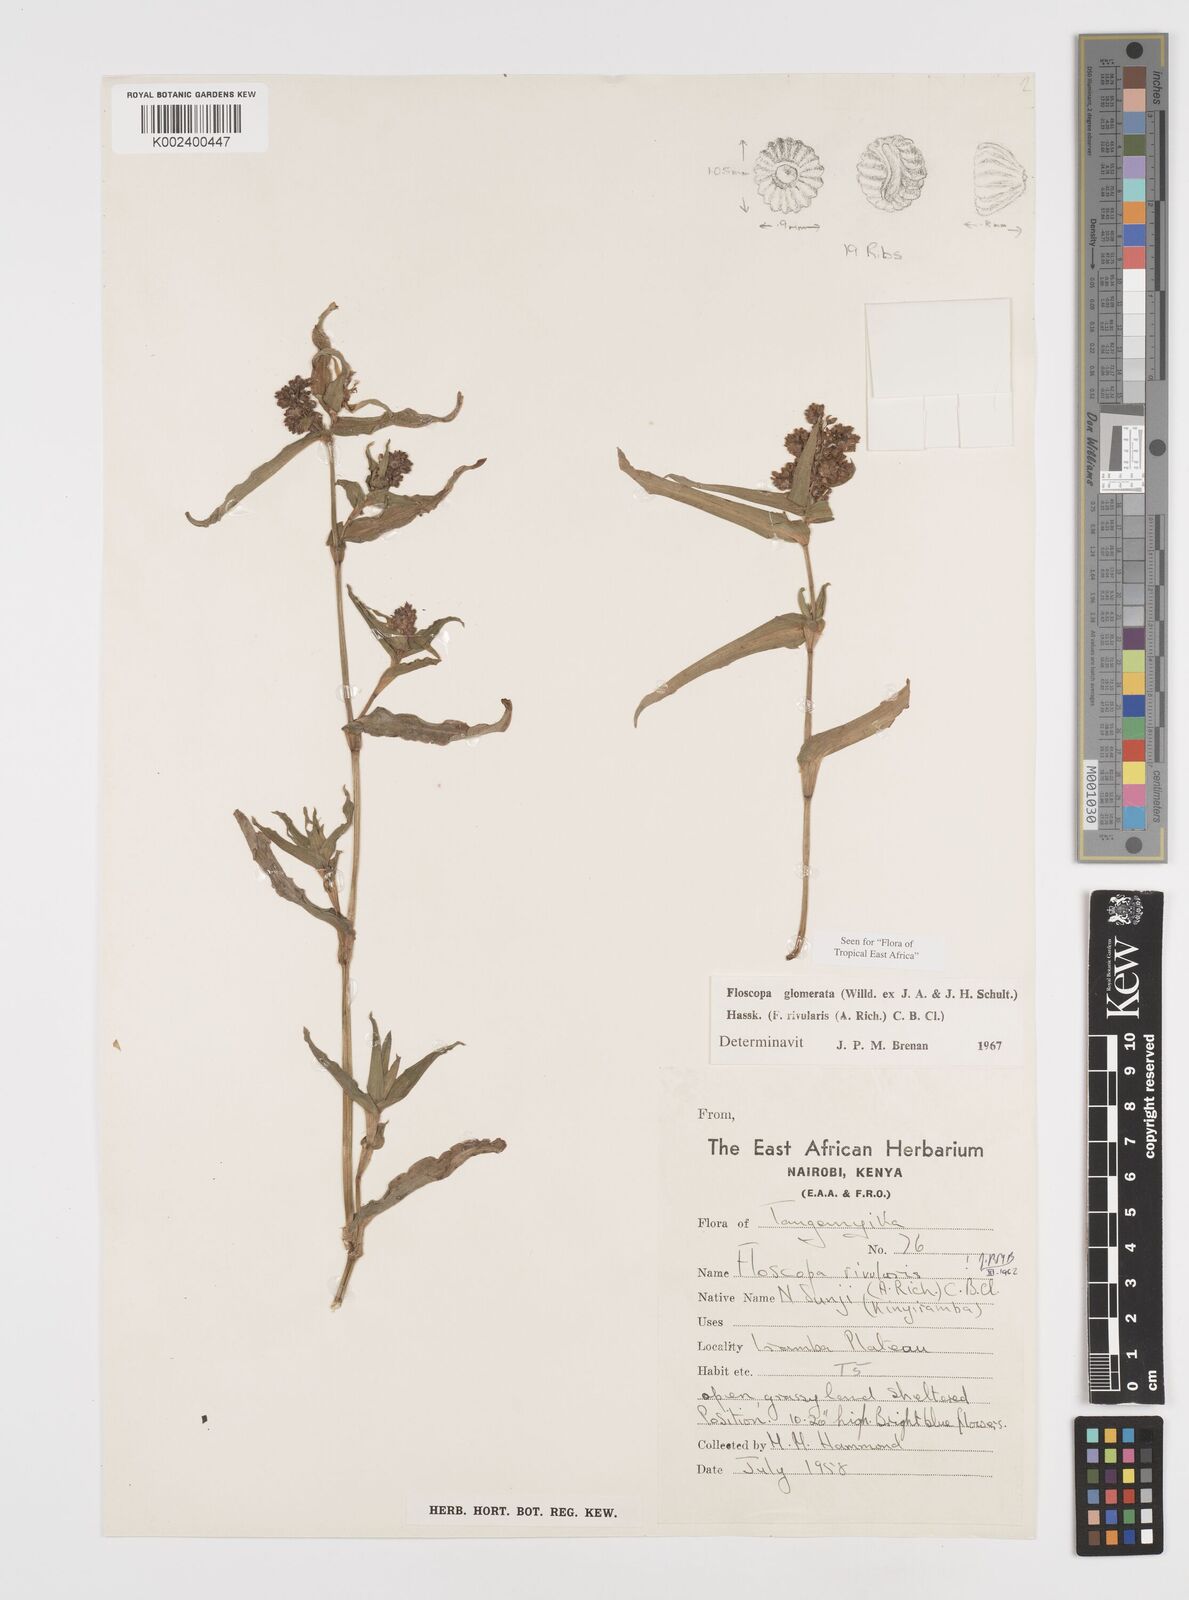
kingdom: Plantae
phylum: Tracheophyta
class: Liliopsida
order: Commelinales
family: Commelinaceae
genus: Floscopa
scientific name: Floscopa glomerata
